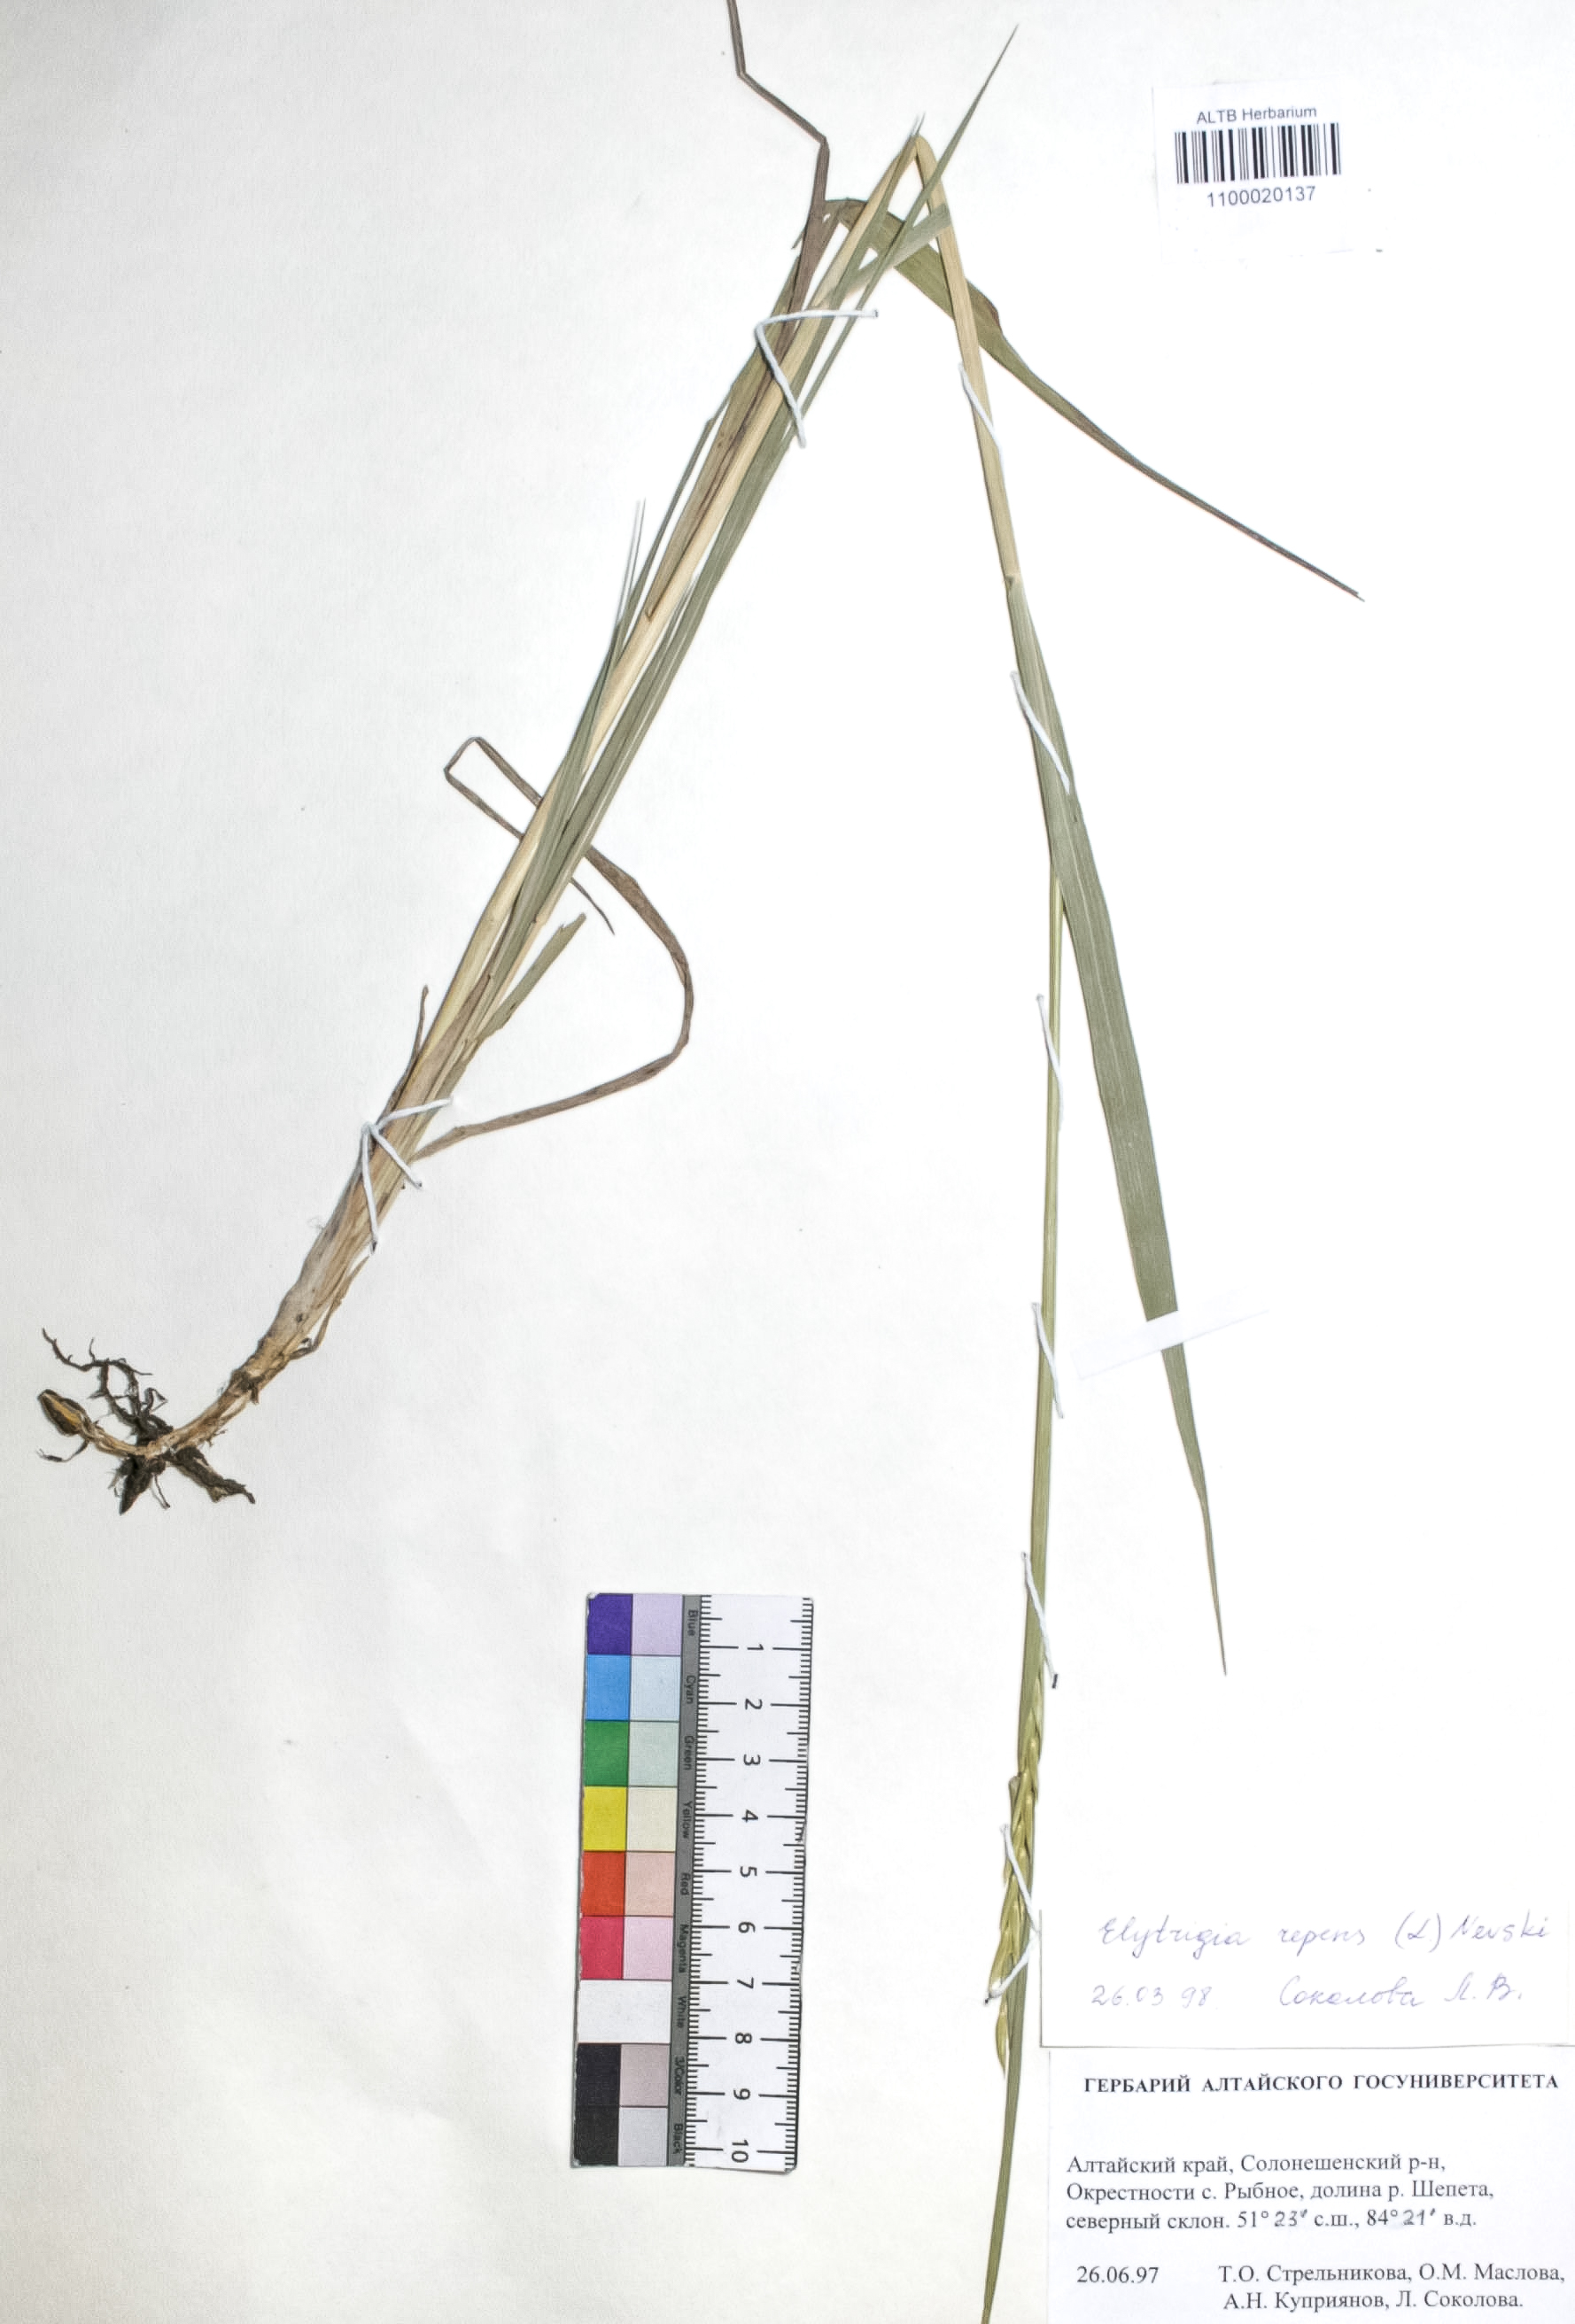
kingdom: Plantae
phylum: Tracheophyta
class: Liliopsida
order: Poales
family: Poaceae
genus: Elymus
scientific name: Elymus repens
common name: Quackgrass
